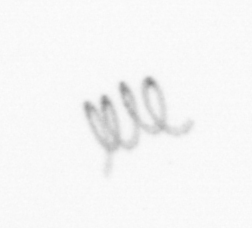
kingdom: Chromista
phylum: Ochrophyta
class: Bacillariophyceae
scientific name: Bacillariophyceae
